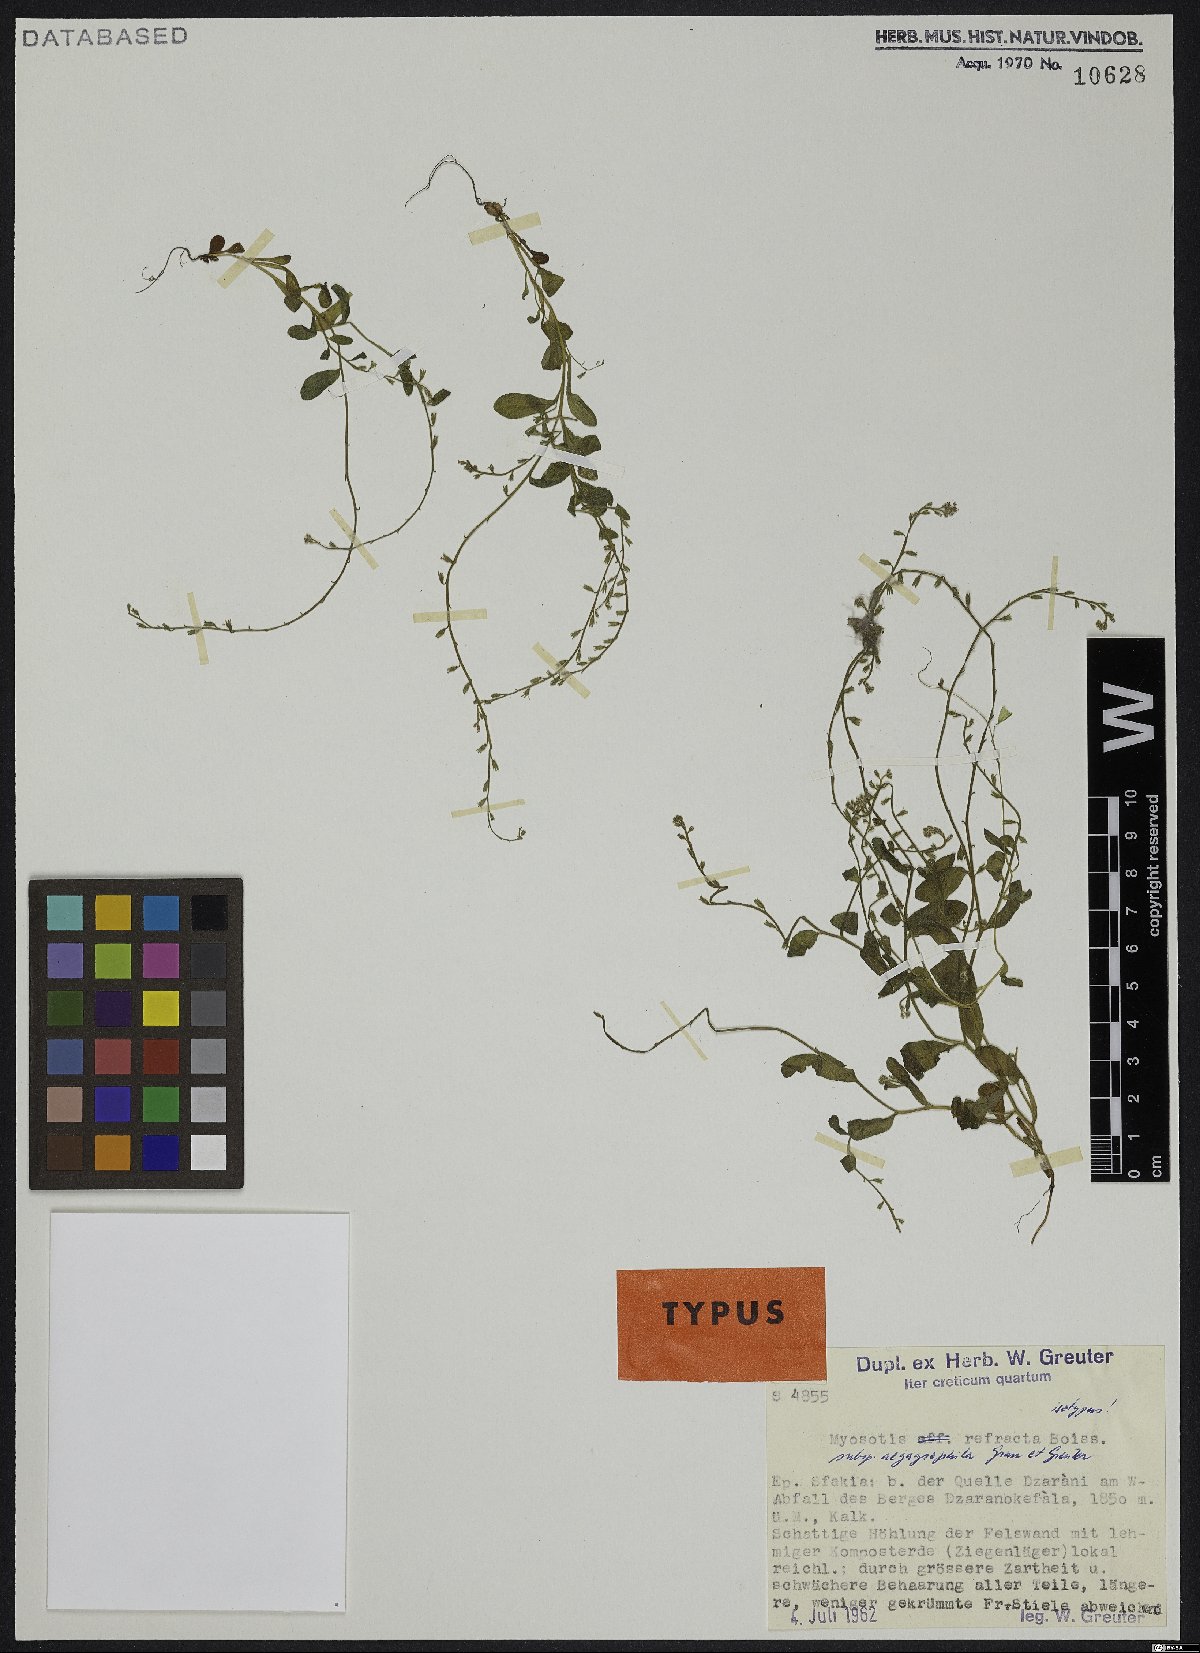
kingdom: Plantae
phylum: Tracheophyta
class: Magnoliopsida
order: Boraginales
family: Boraginaceae
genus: Myosotis
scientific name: Myosotis paucipilosa
